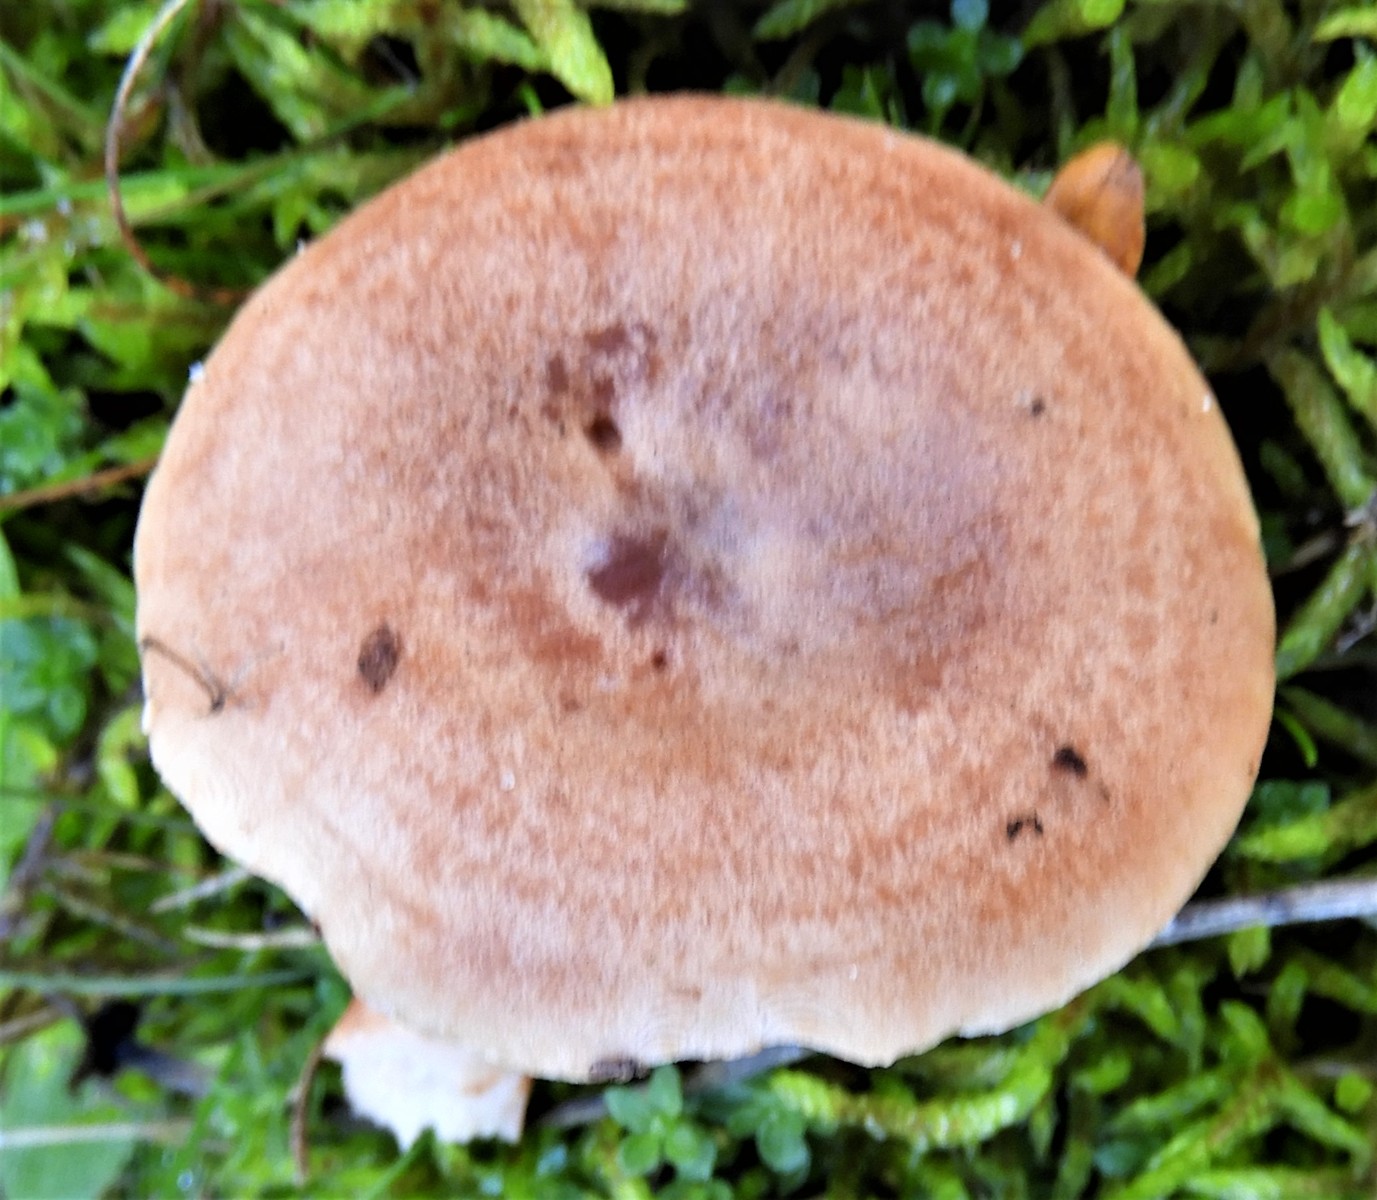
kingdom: Fungi
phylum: Basidiomycota
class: Agaricomycetes
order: Russulales
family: Russulaceae
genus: Lactarius
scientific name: Lactarius quietus
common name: ege-mælkehat
